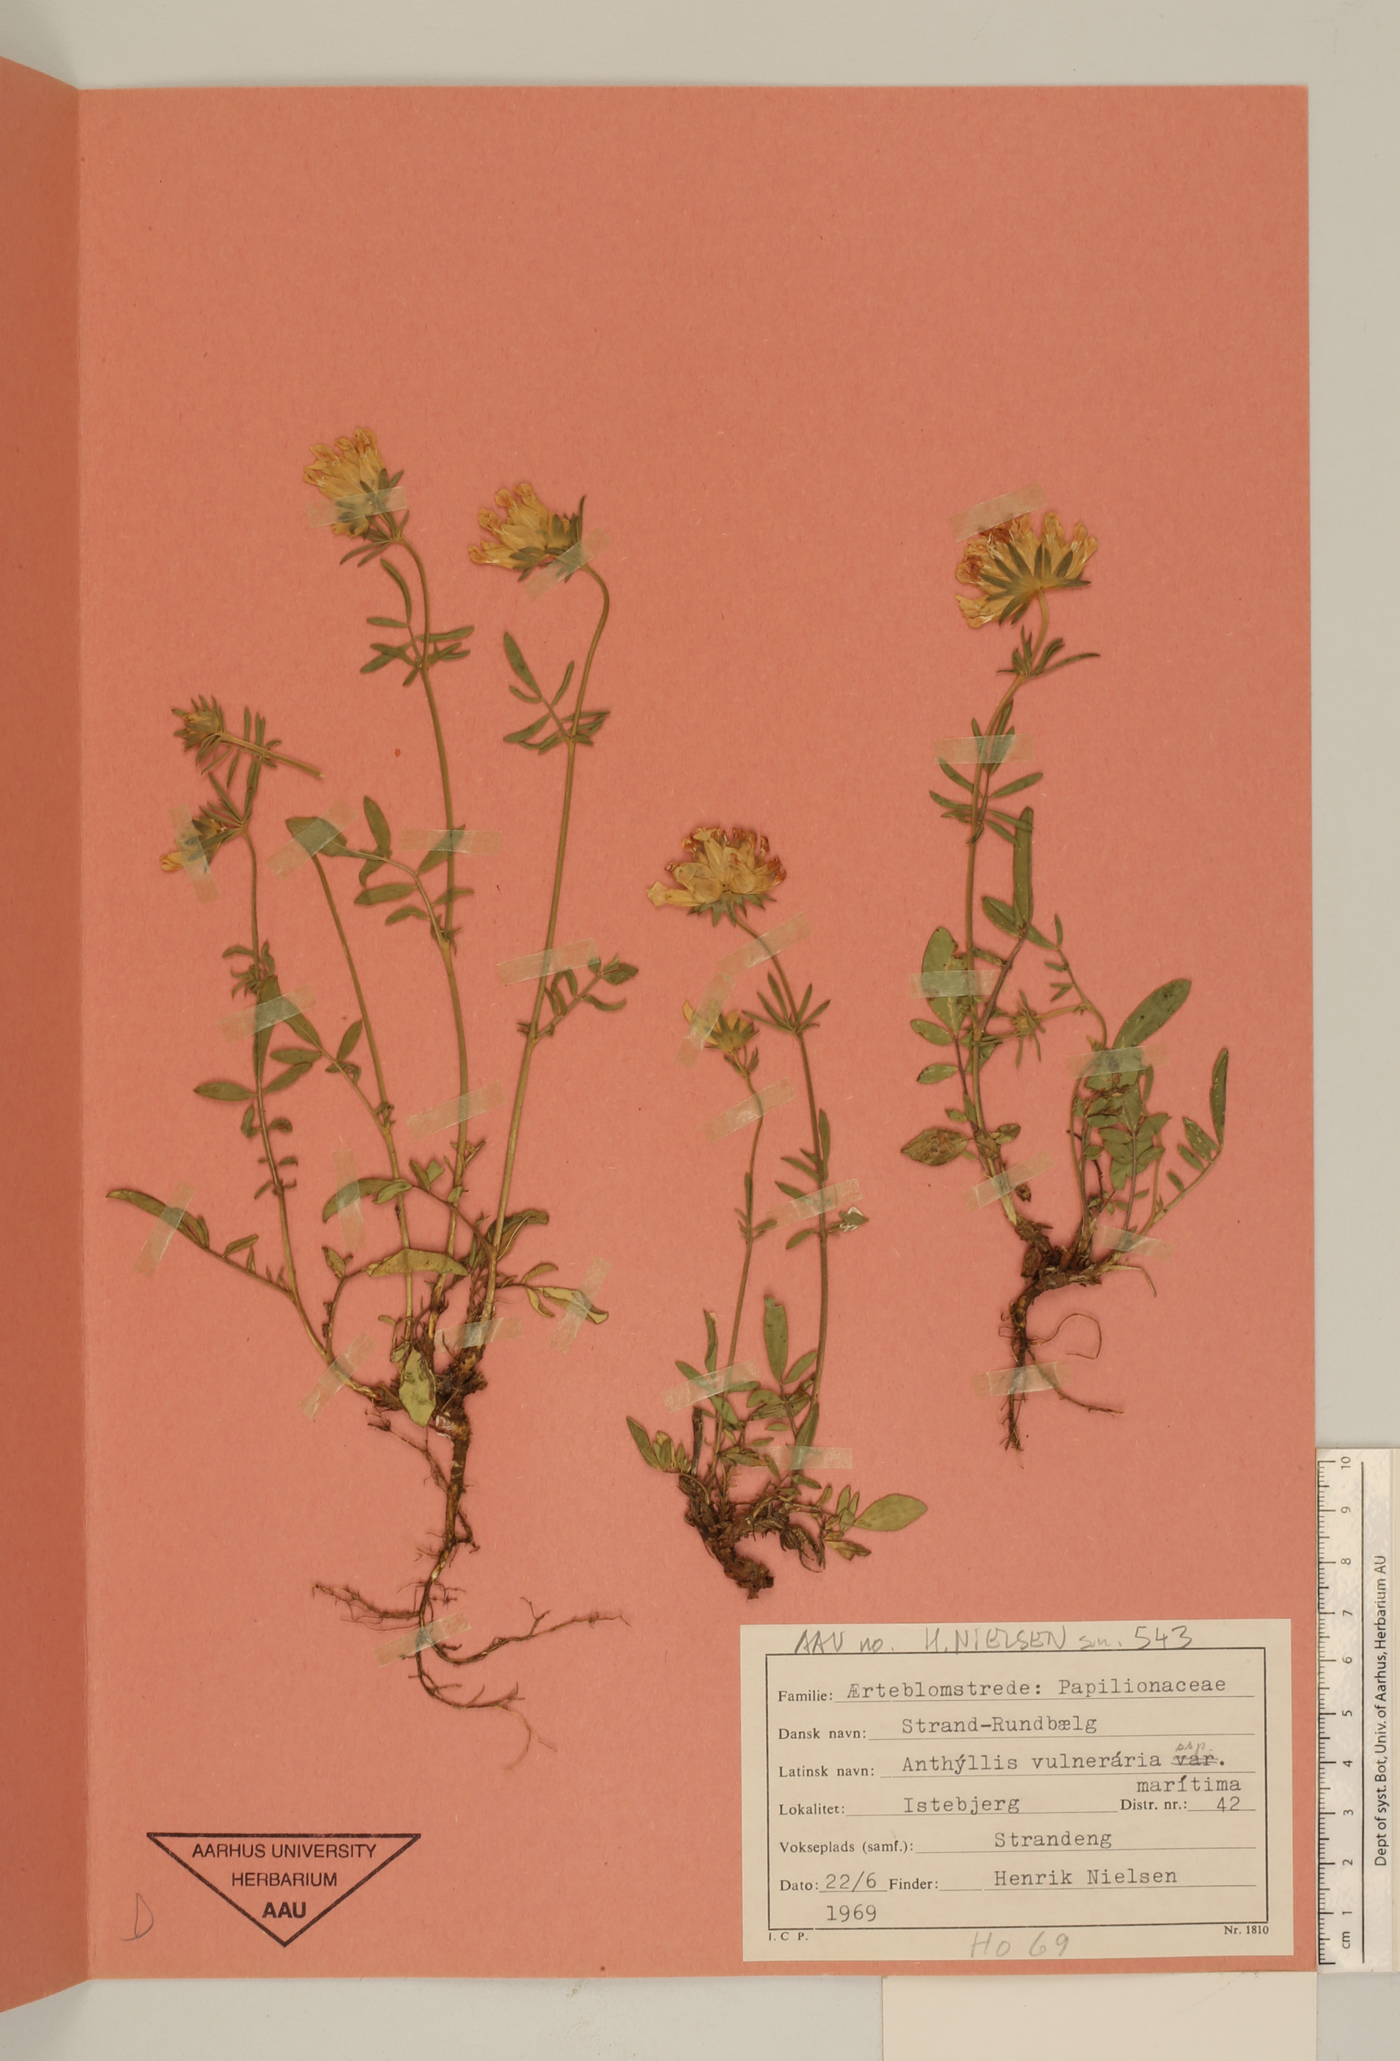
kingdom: Plantae
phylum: Tracheophyta
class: Magnoliopsida
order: Fabales
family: Fabaceae
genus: Anthyllis
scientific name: Anthyllis vulneraria
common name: Kidney vetch
